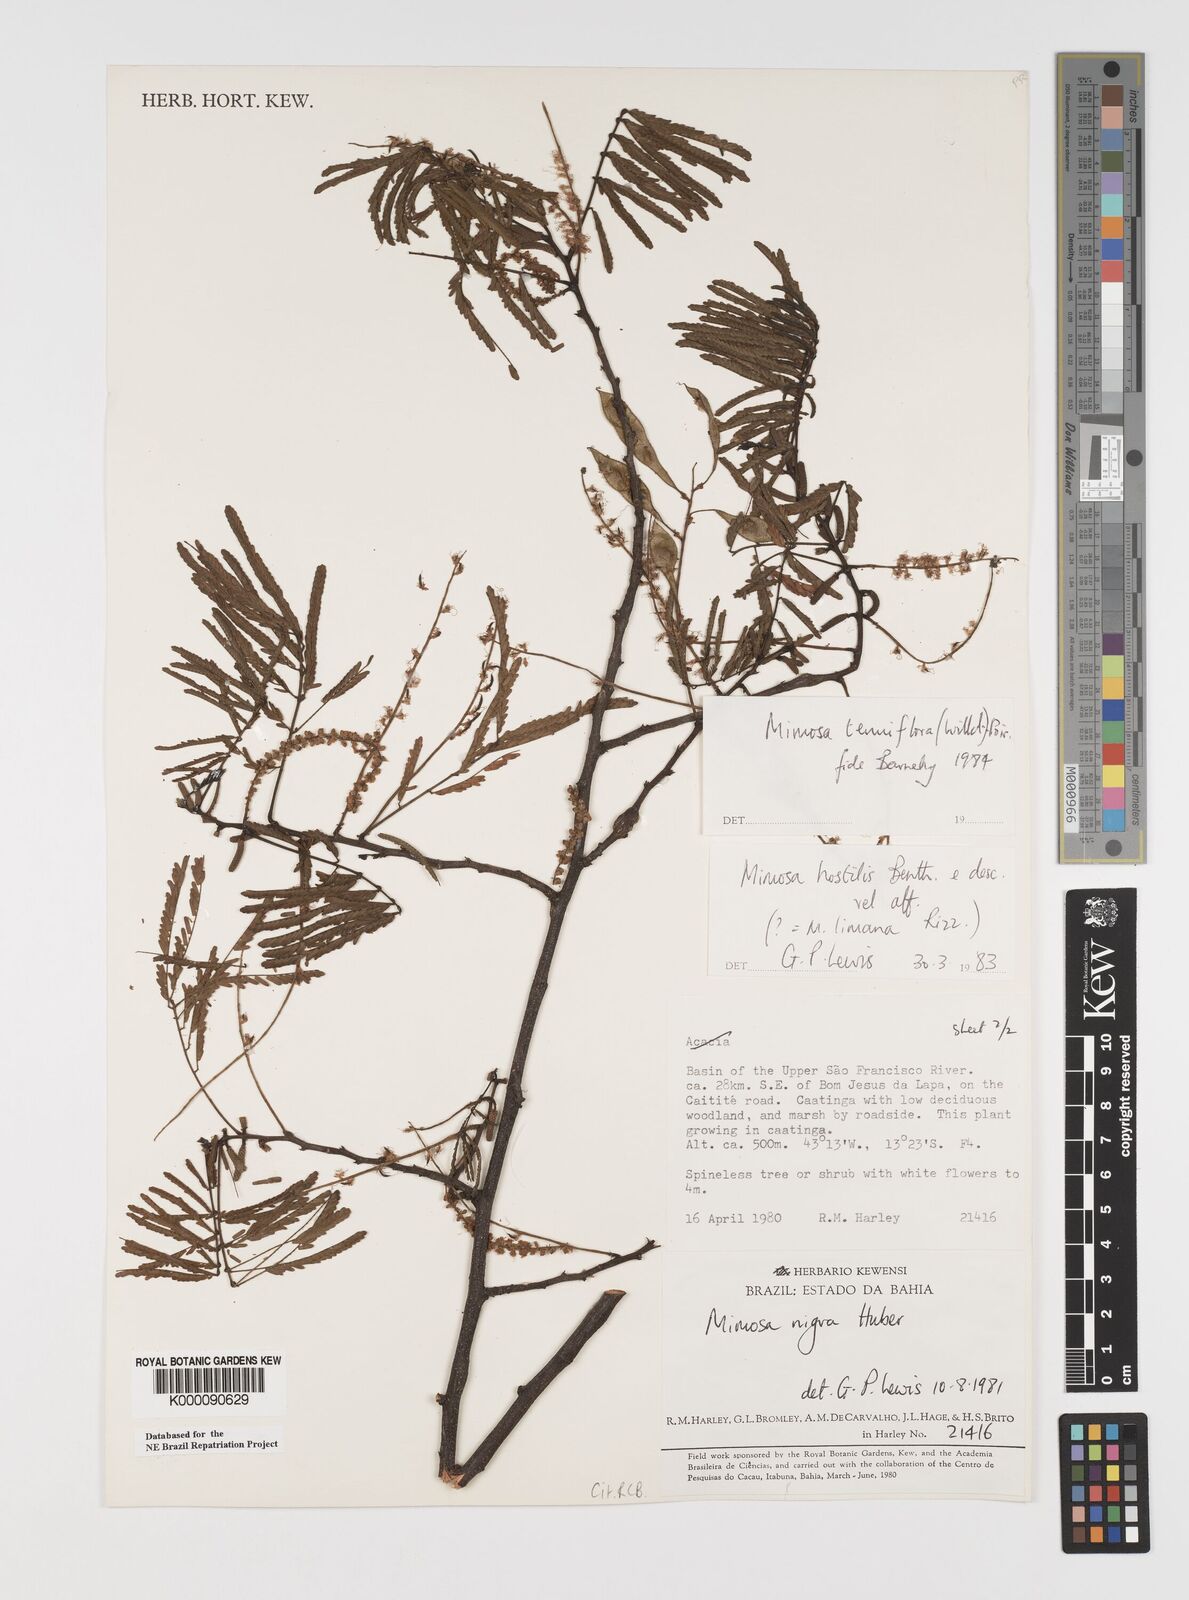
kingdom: Plantae
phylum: Tracheophyta
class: Magnoliopsida
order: Fabales
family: Fabaceae
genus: Mimosa
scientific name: Mimosa tenuiflora
